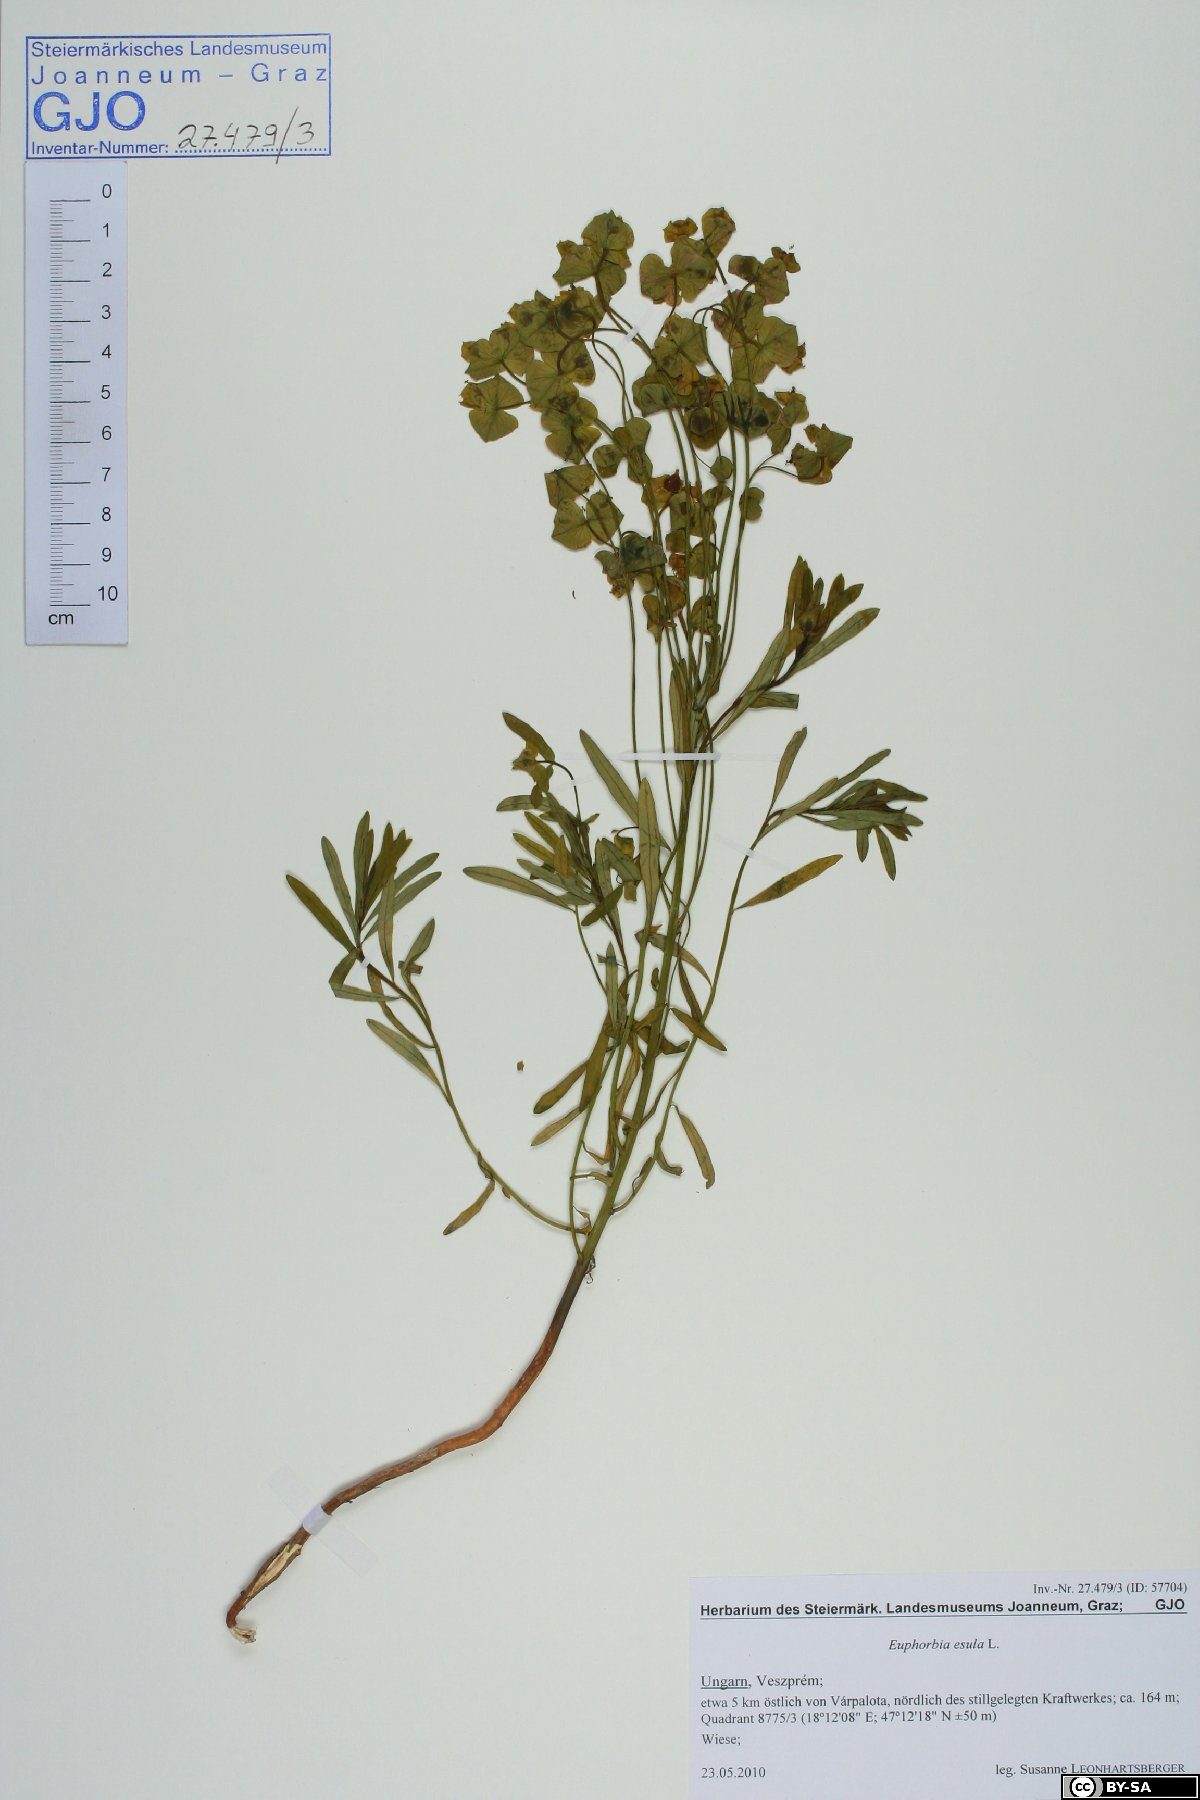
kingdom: Plantae
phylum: Tracheophyta
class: Magnoliopsida
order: Malpighiales
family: Euphorbiaceae
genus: Euphorbia
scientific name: Euphorbia esula
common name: Leafy spurge
